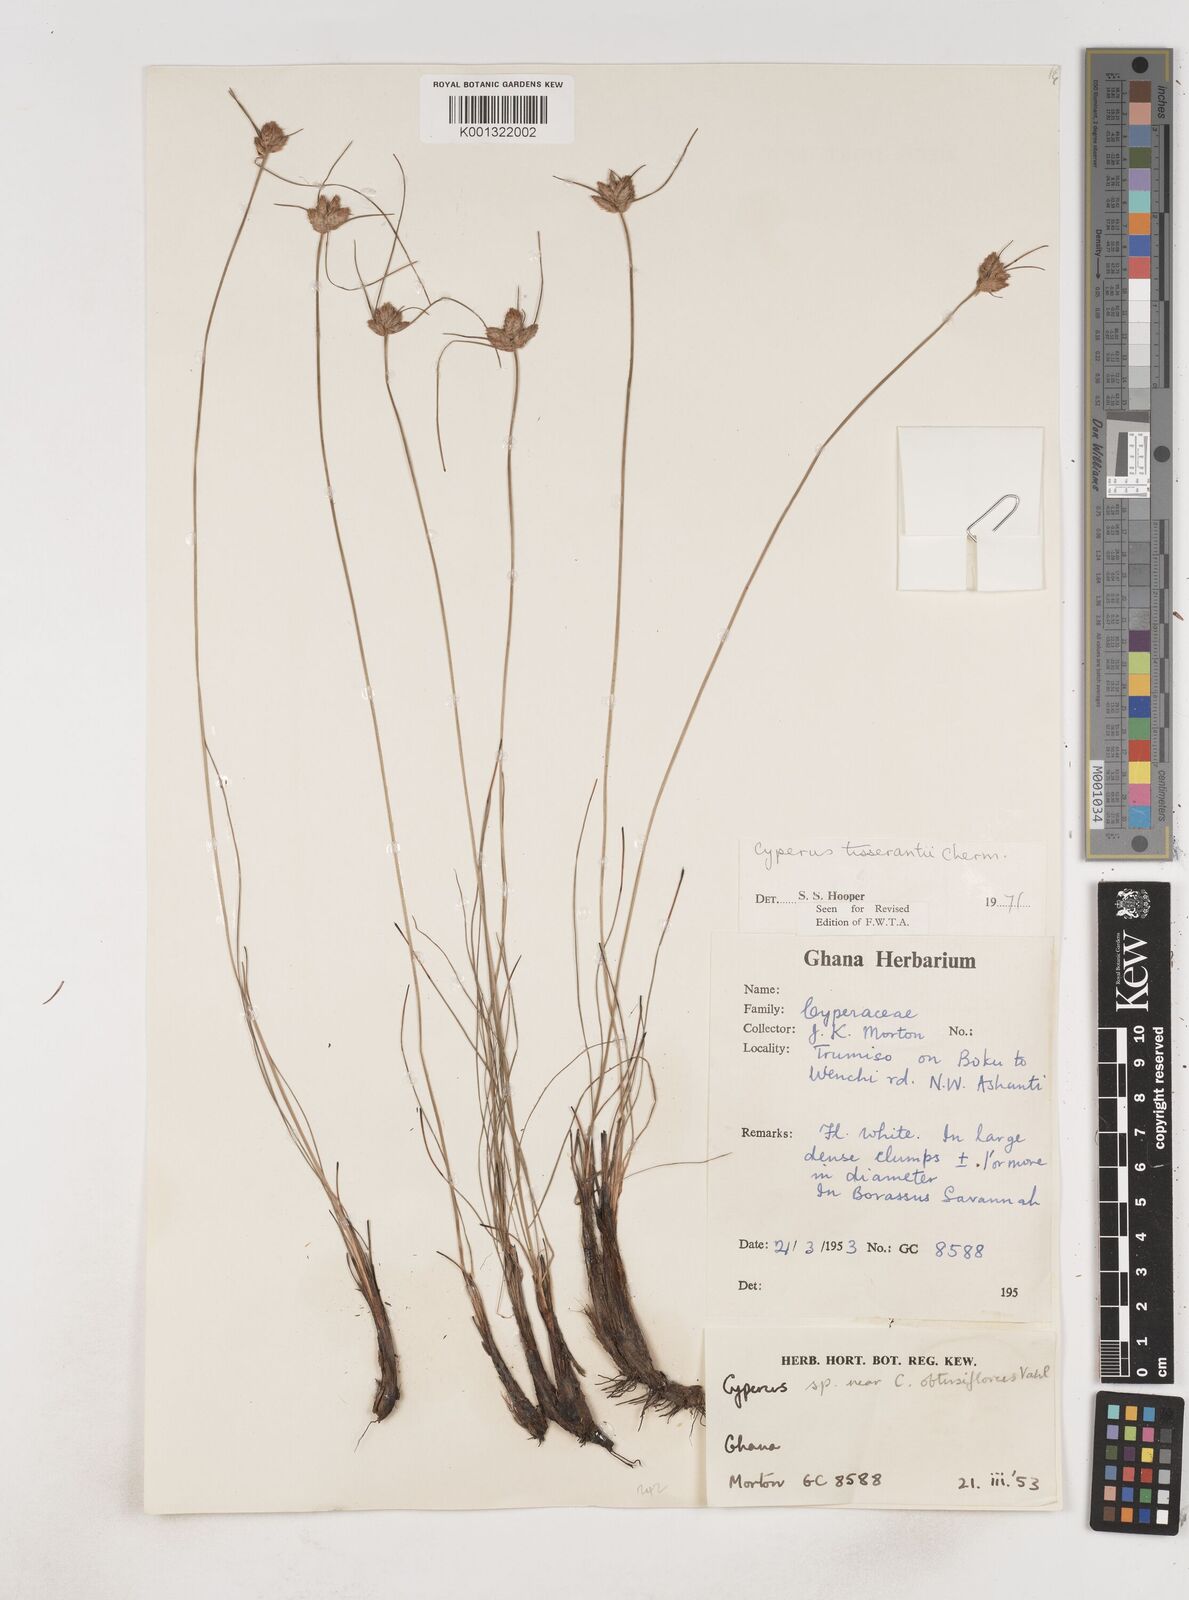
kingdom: Plantae
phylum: Tracheophyta
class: Liliopsida
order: Poales
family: Cyperaceae
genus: Cyperus
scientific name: Cyperus niveus
